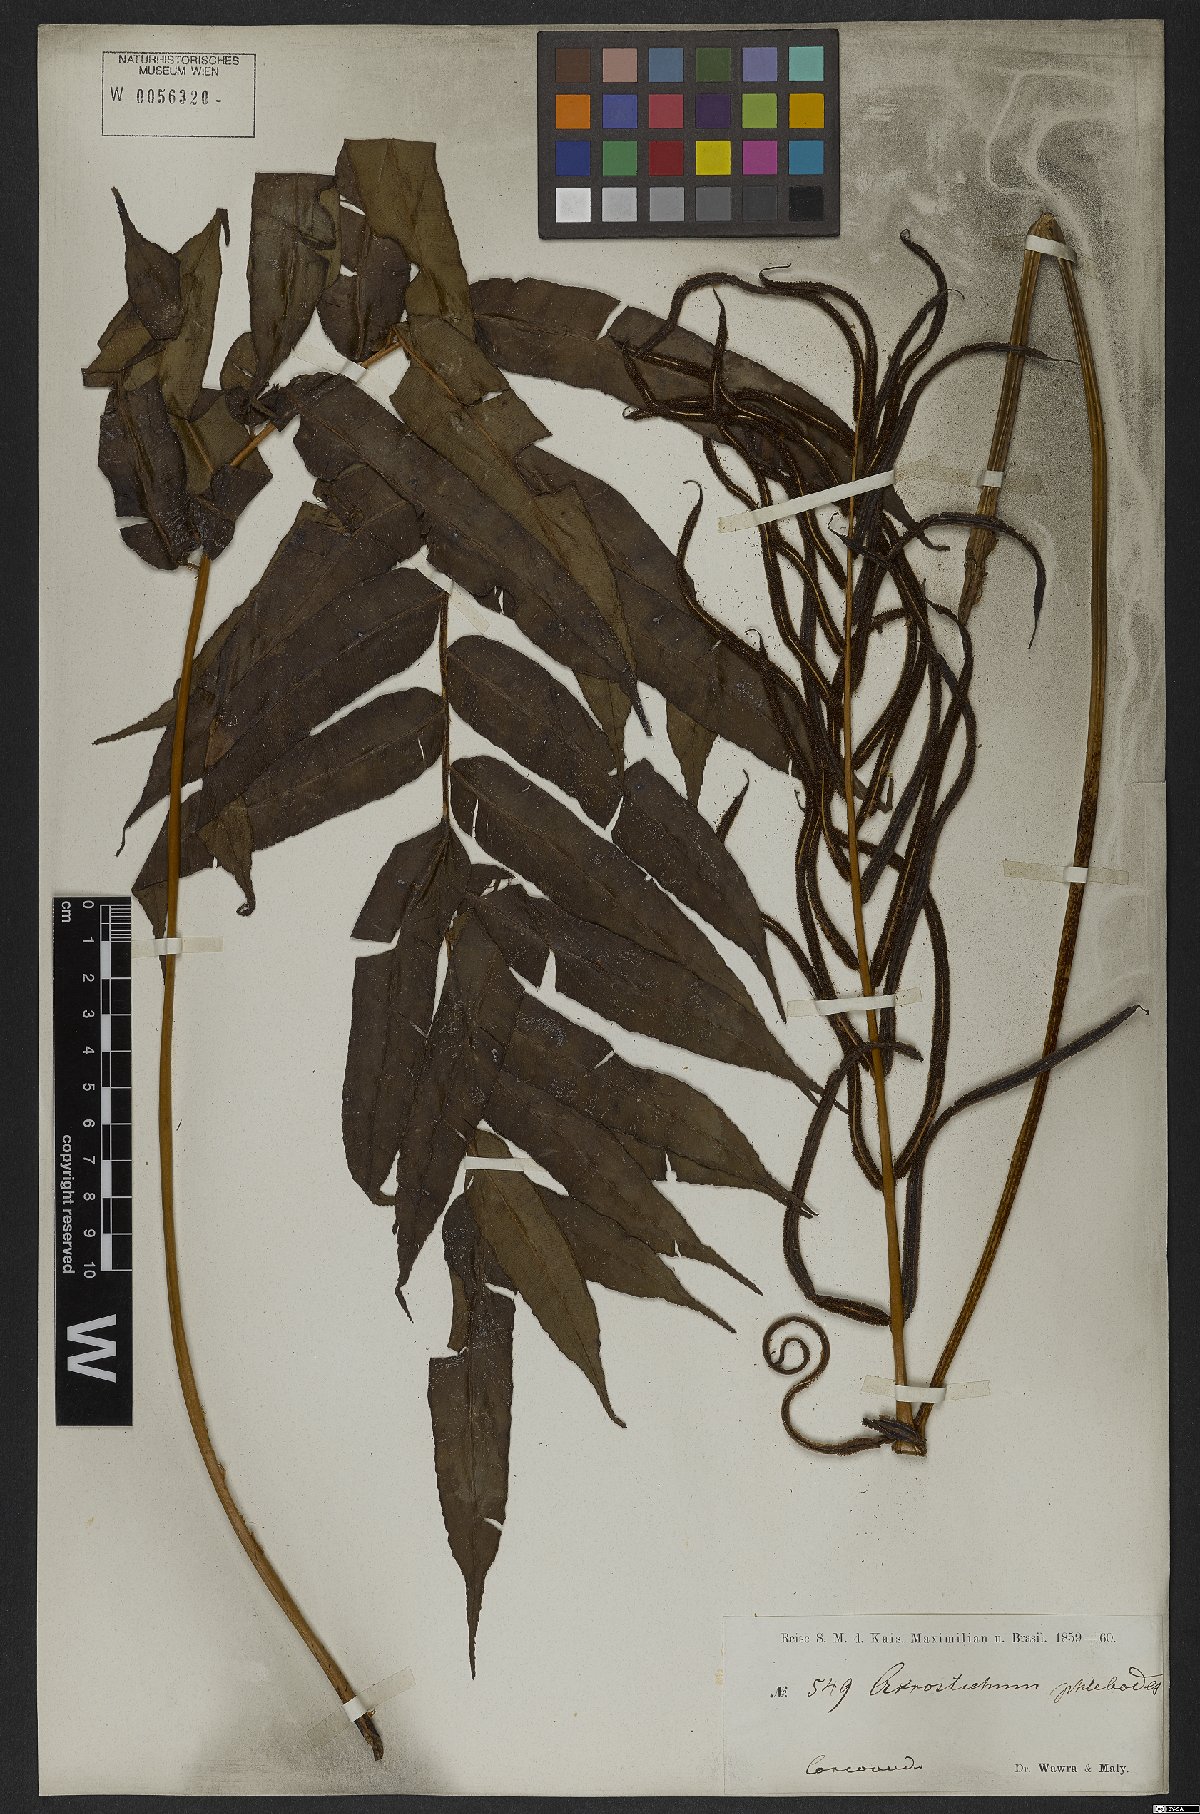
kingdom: Plantae
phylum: Tracheophyta
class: Polypodiopsida
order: Polypodiales
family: Lomariopsidaceae
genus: Lomariopsis
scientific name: Lomariopsis marginata
